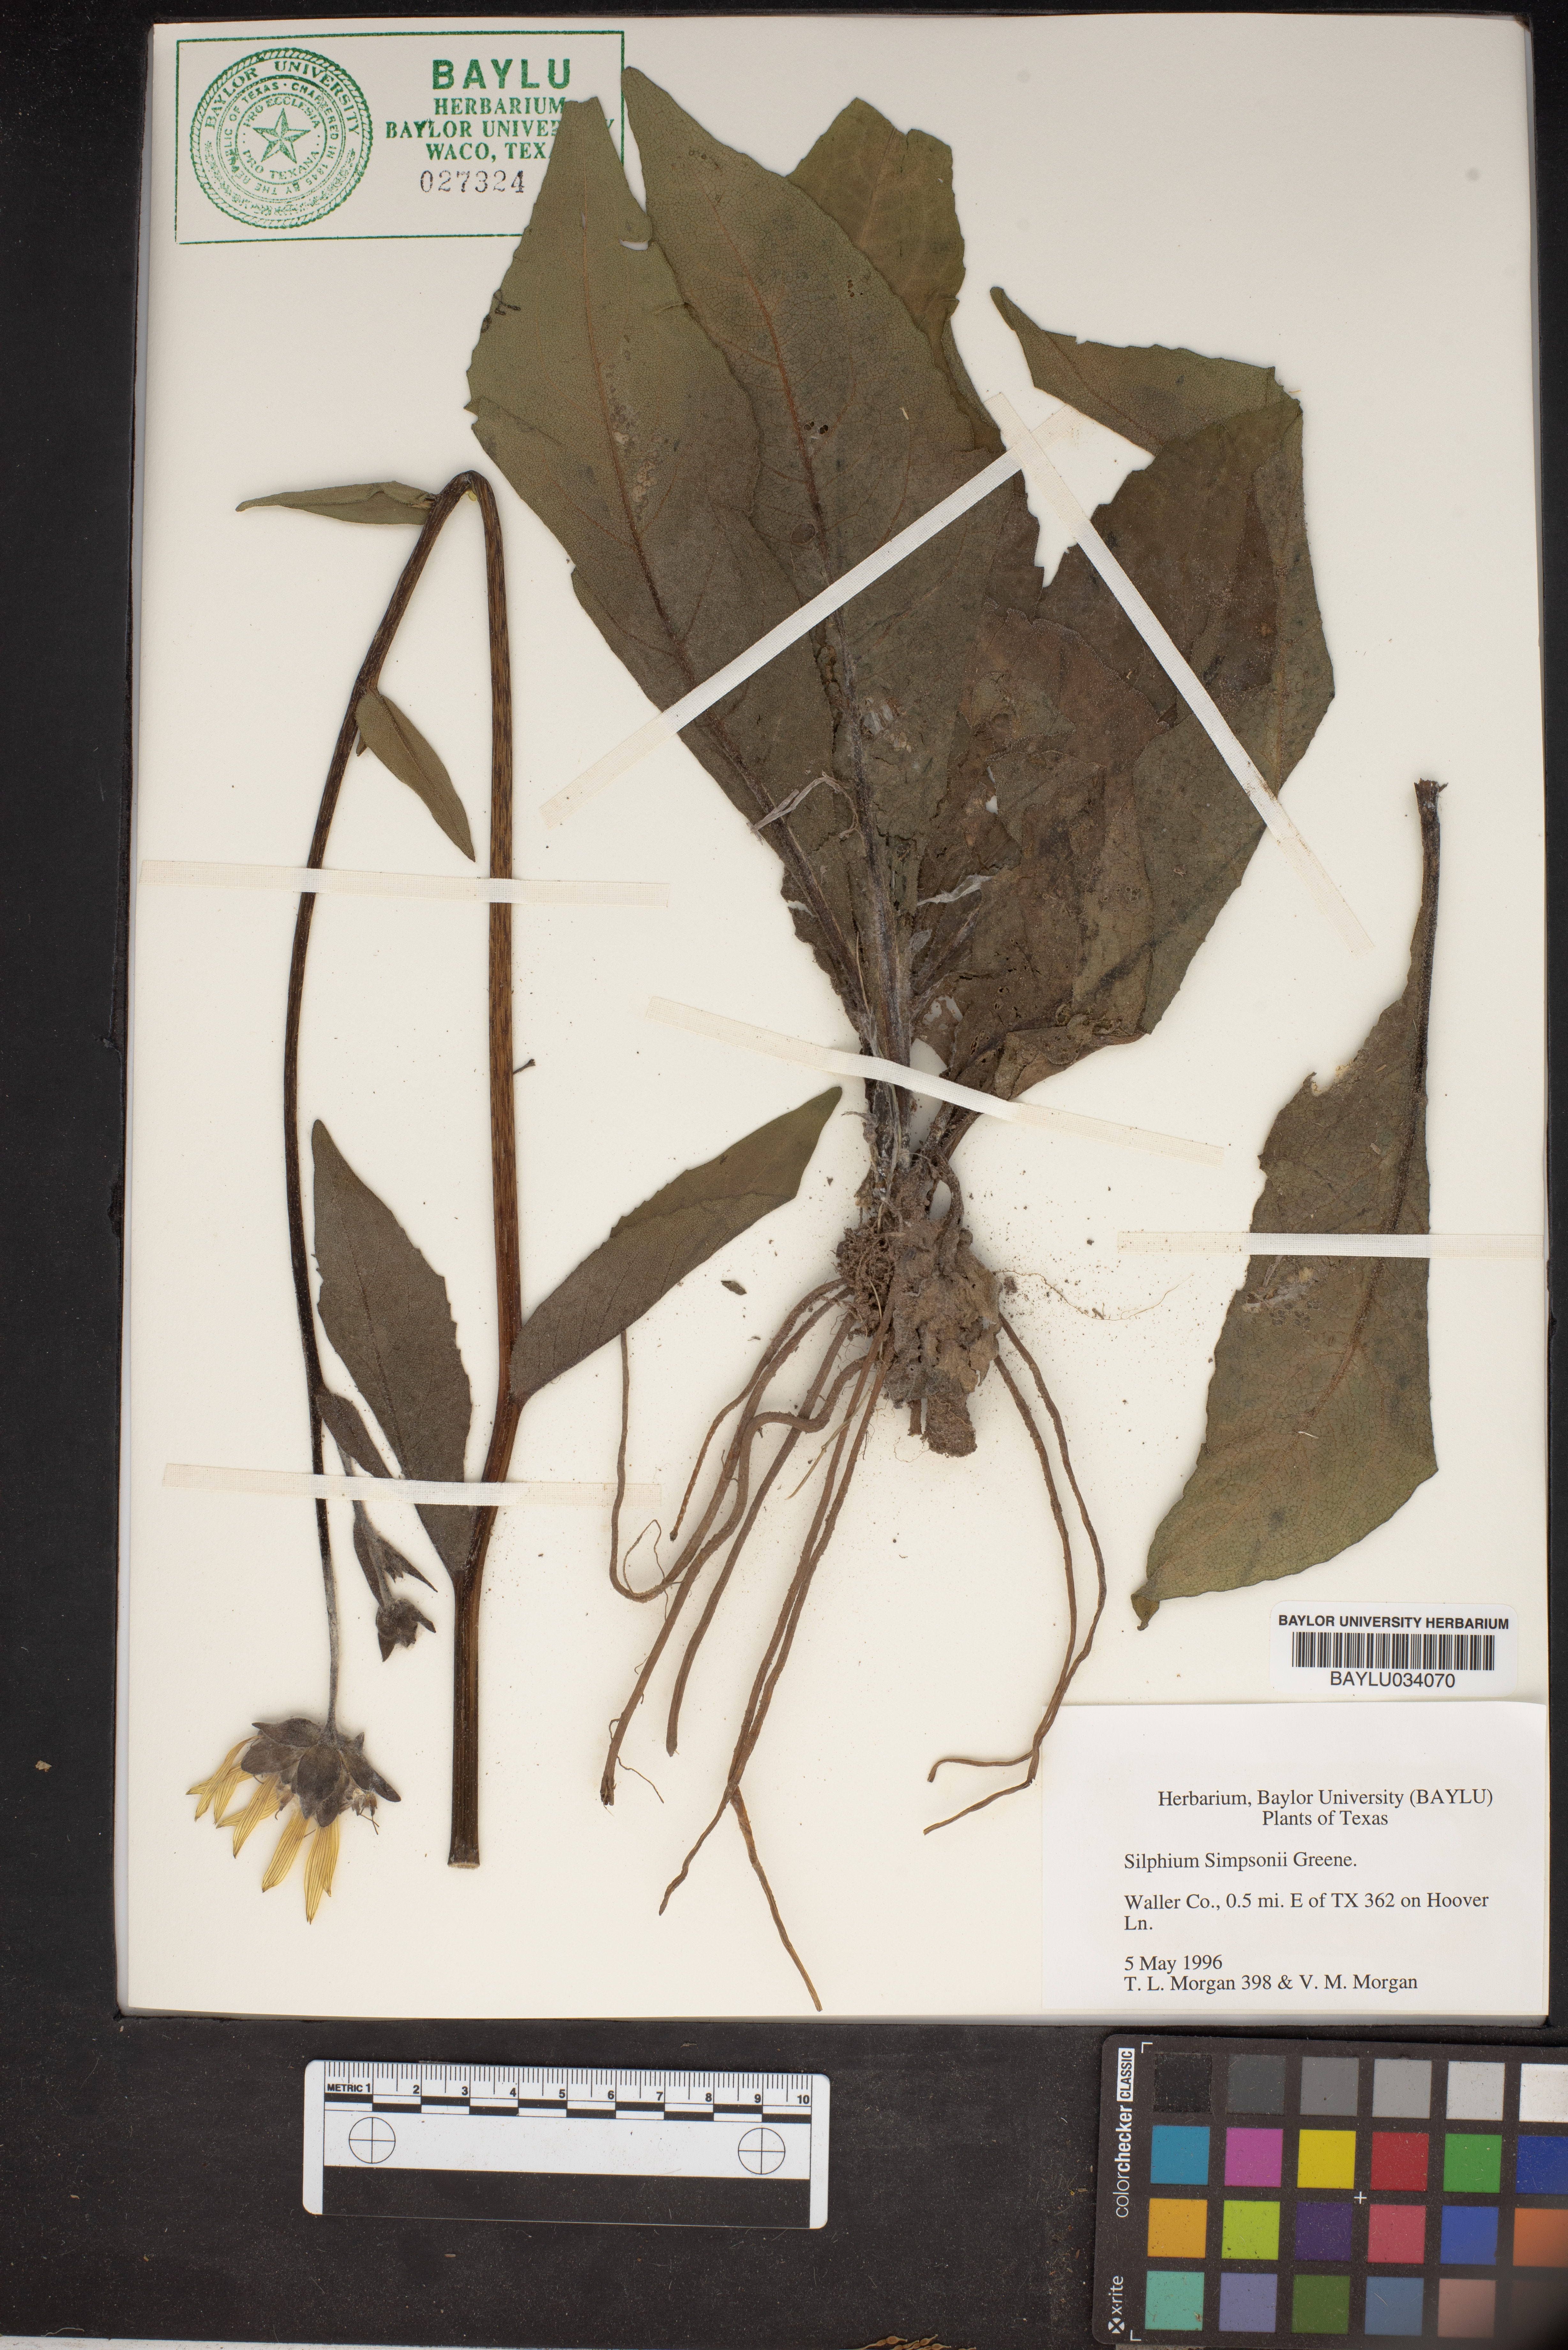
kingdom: Plantae
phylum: Tracheophyta
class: Magnoliopsida
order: Asterales
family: Asteraceae
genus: Silphium
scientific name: Silphium asteriscus
